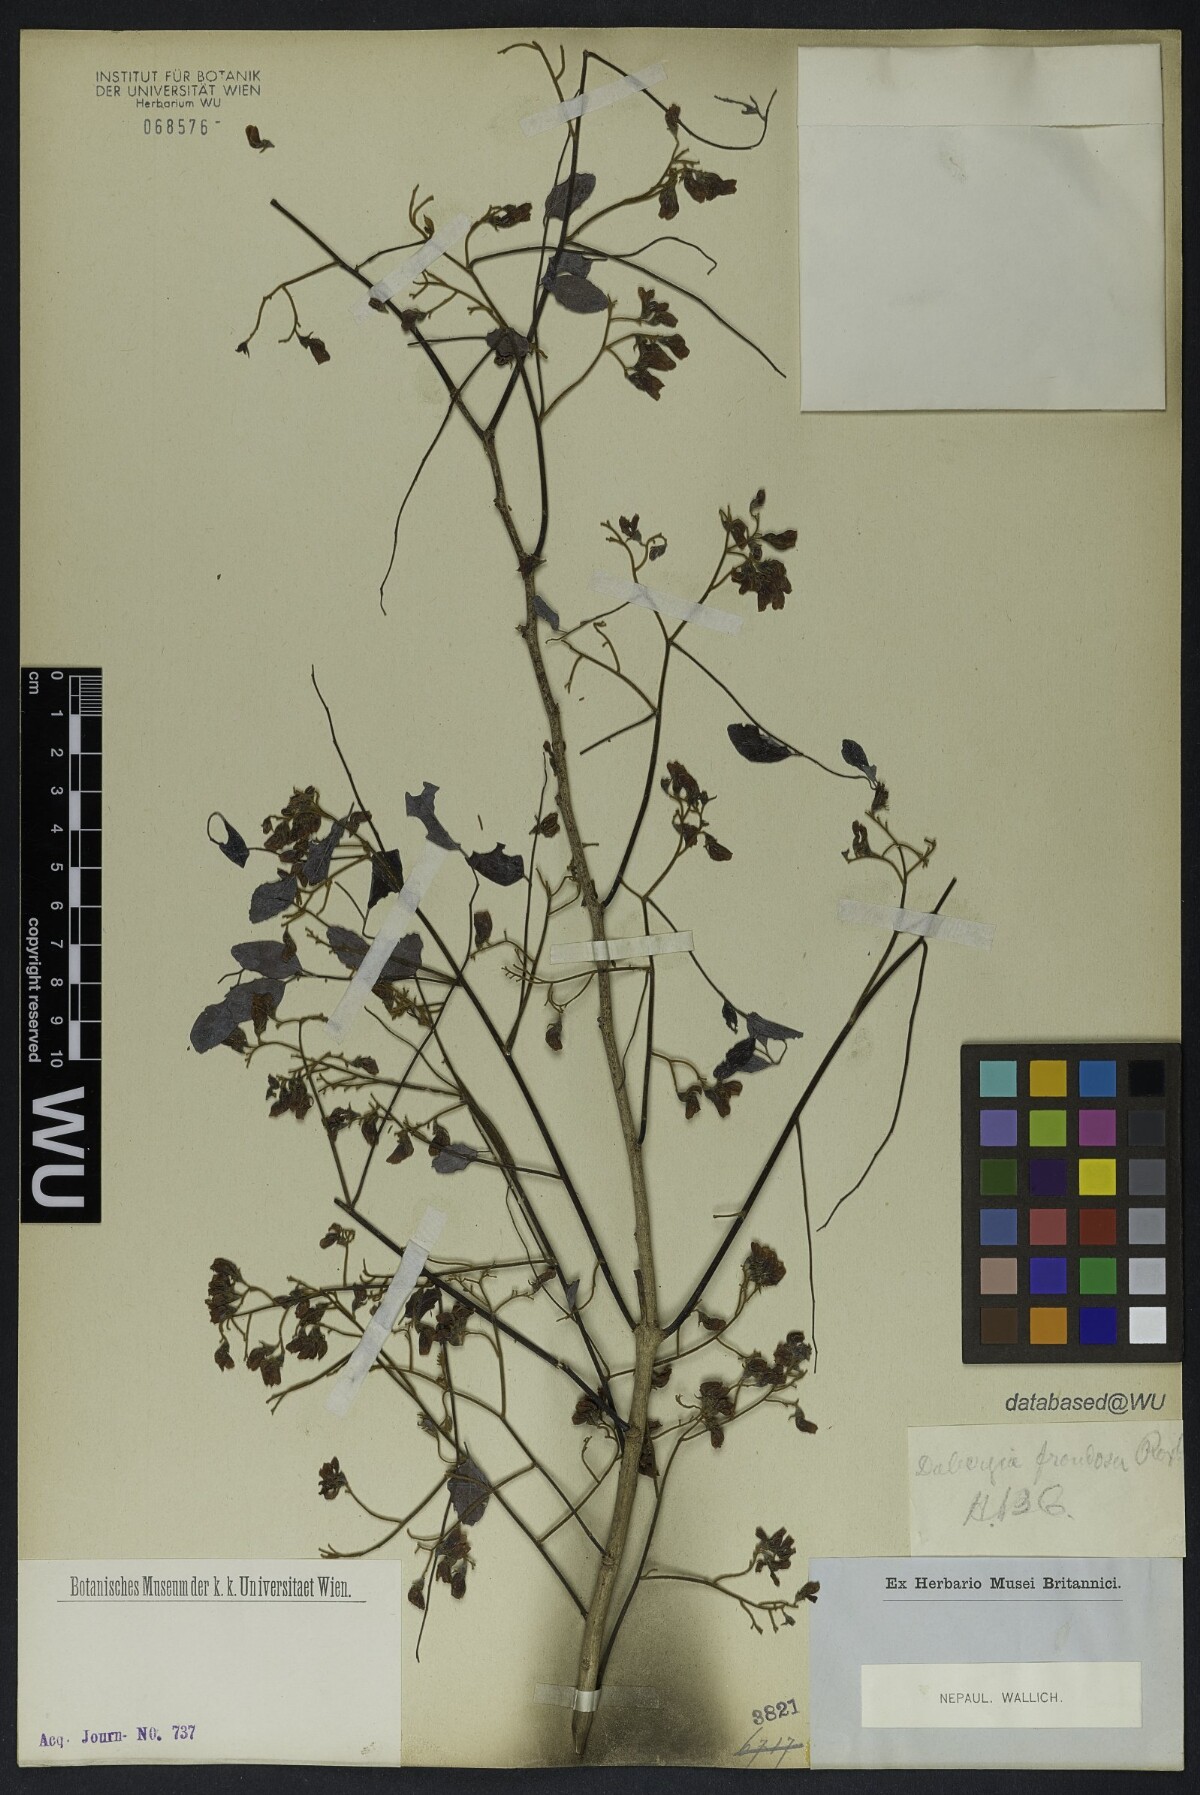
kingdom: Plantae
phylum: Tracheophyta
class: Magnoliopsida
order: Fabales
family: Fabaceae
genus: Dalbergia
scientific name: Dalbergia lanceolaria
